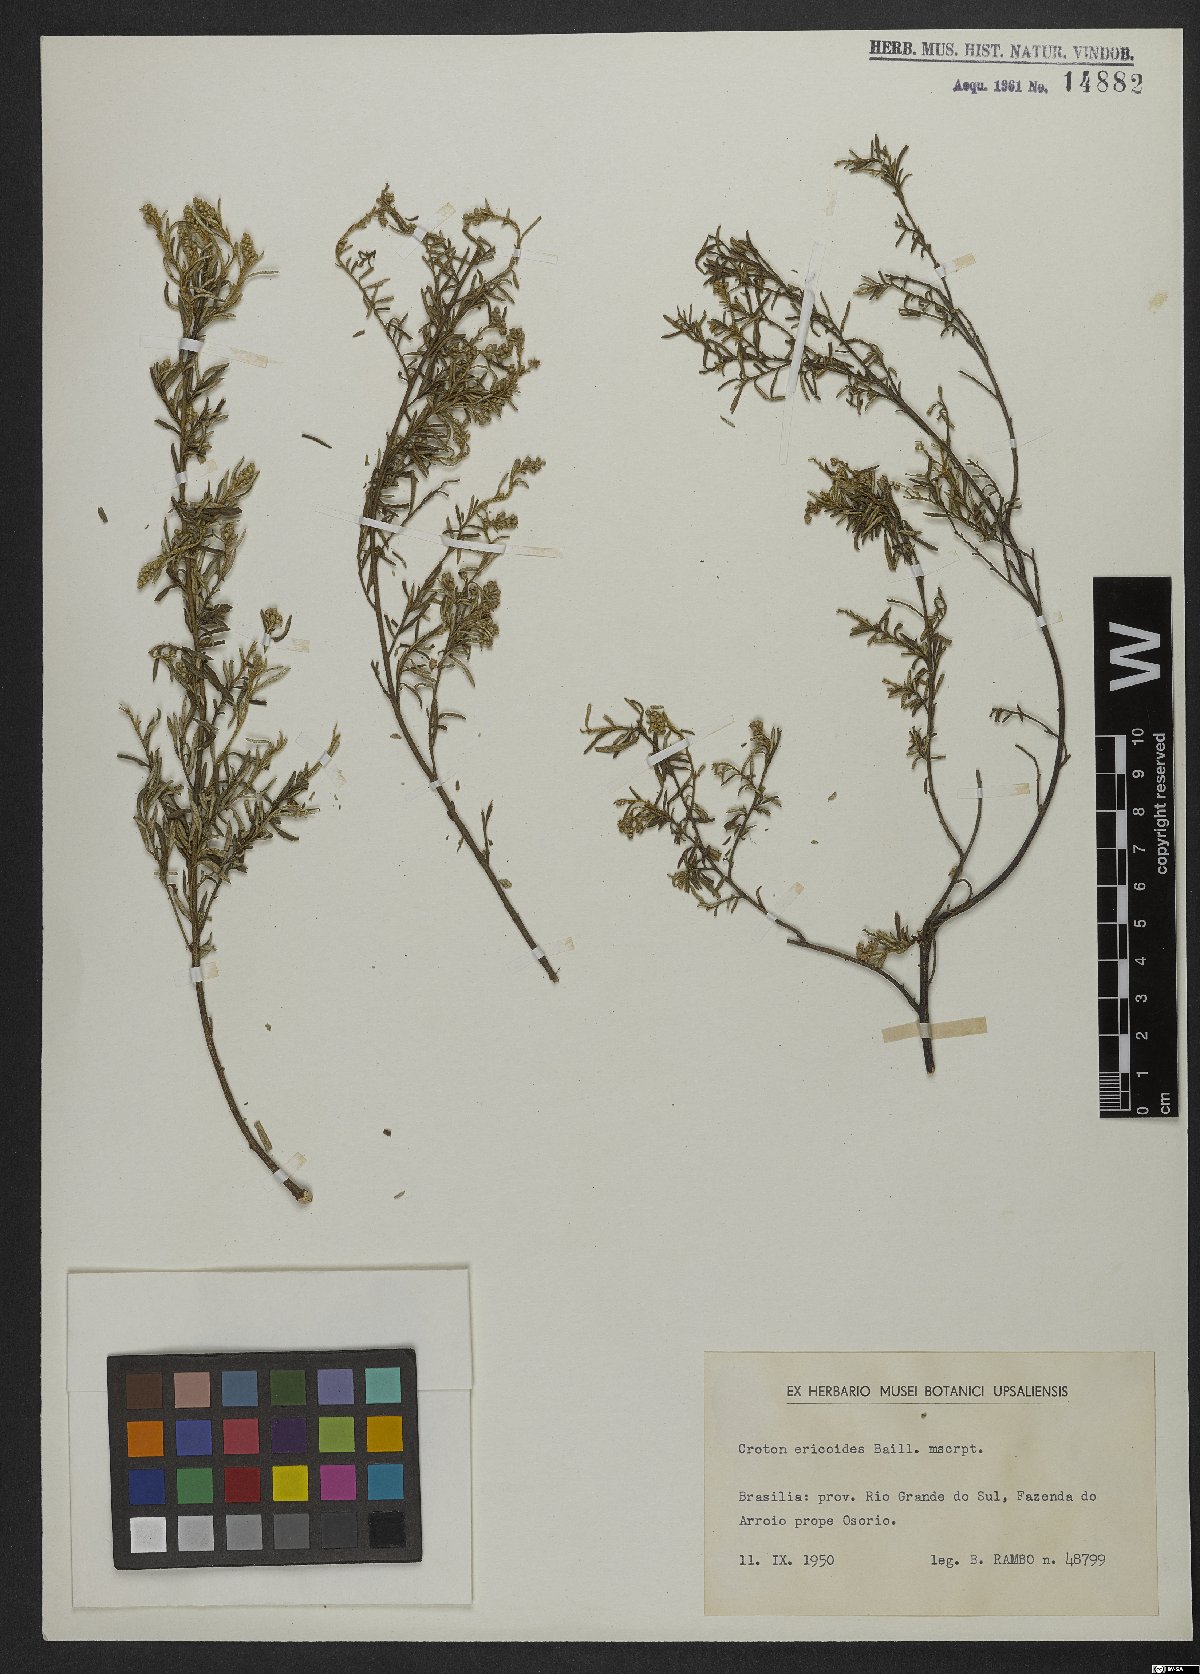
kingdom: Plantae
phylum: Tracheophyta
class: Magnoliopsida
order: Malpighiales
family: Euphorbiaceae
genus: Croton
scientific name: Croton ericoides
